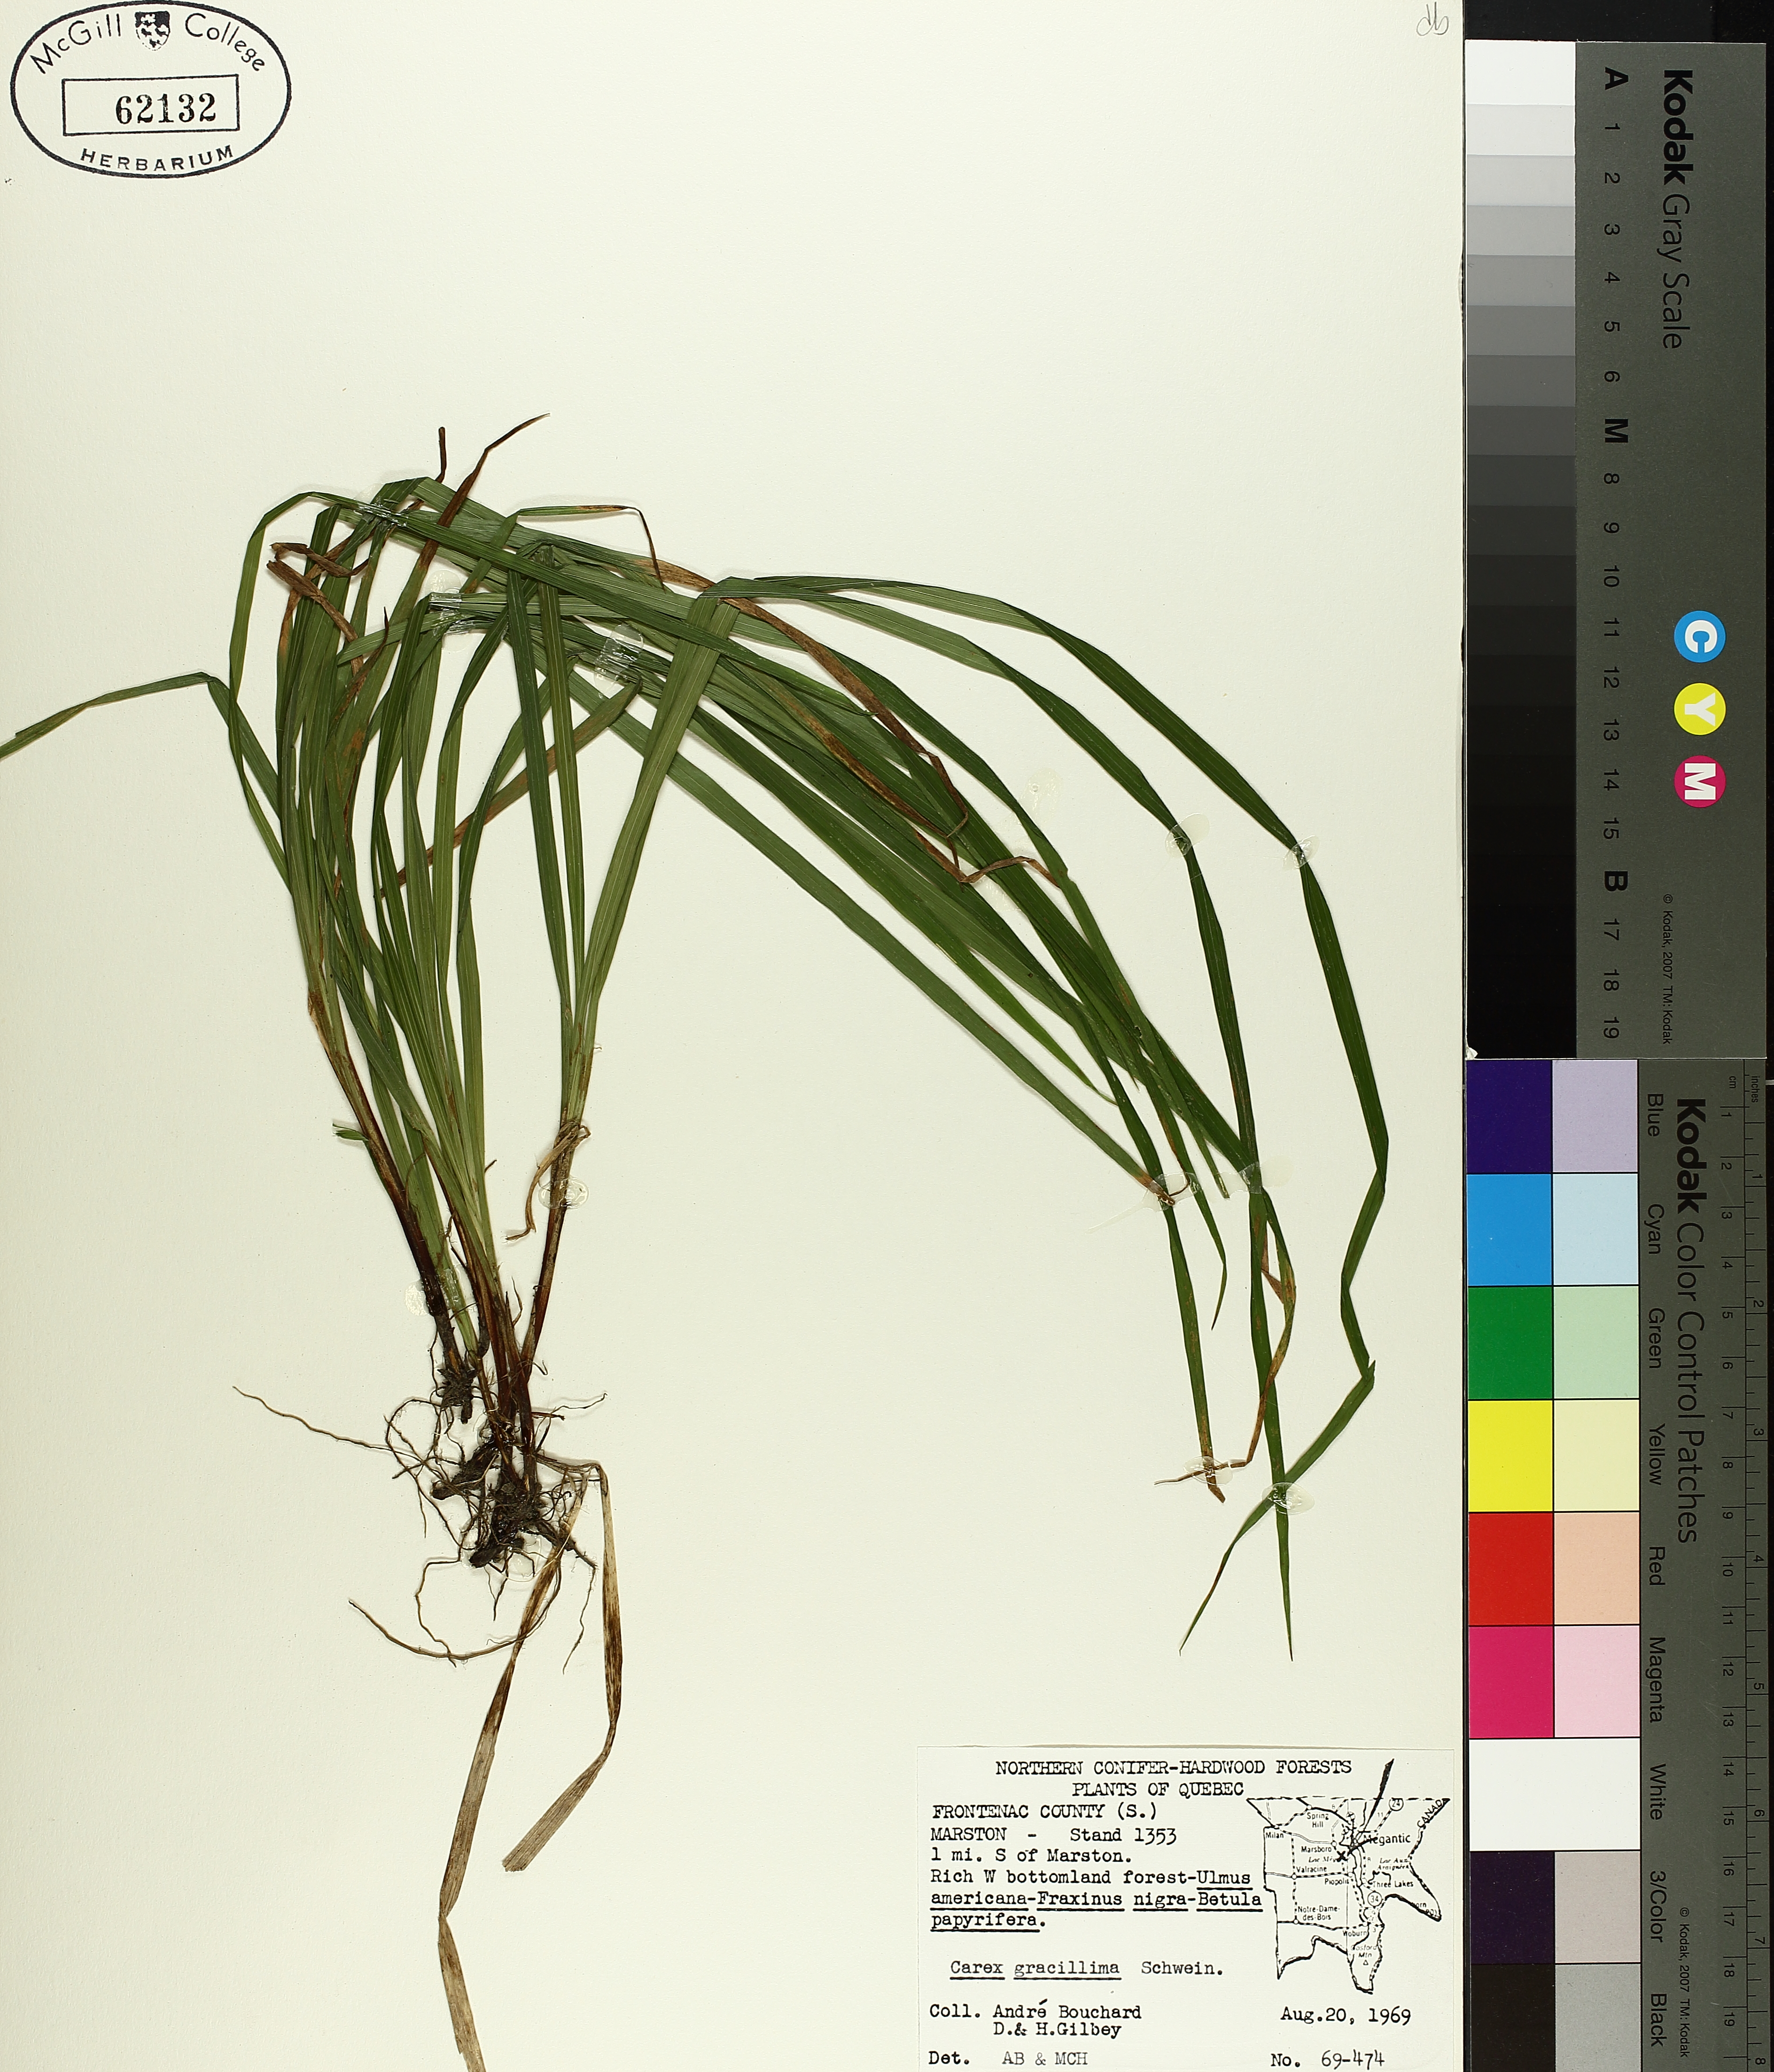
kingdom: Plantae
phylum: Tracheophyta
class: Liliopsida
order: Poales
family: Cyperaceae
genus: Carex
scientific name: Carex gracillima
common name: Graceful sedge
